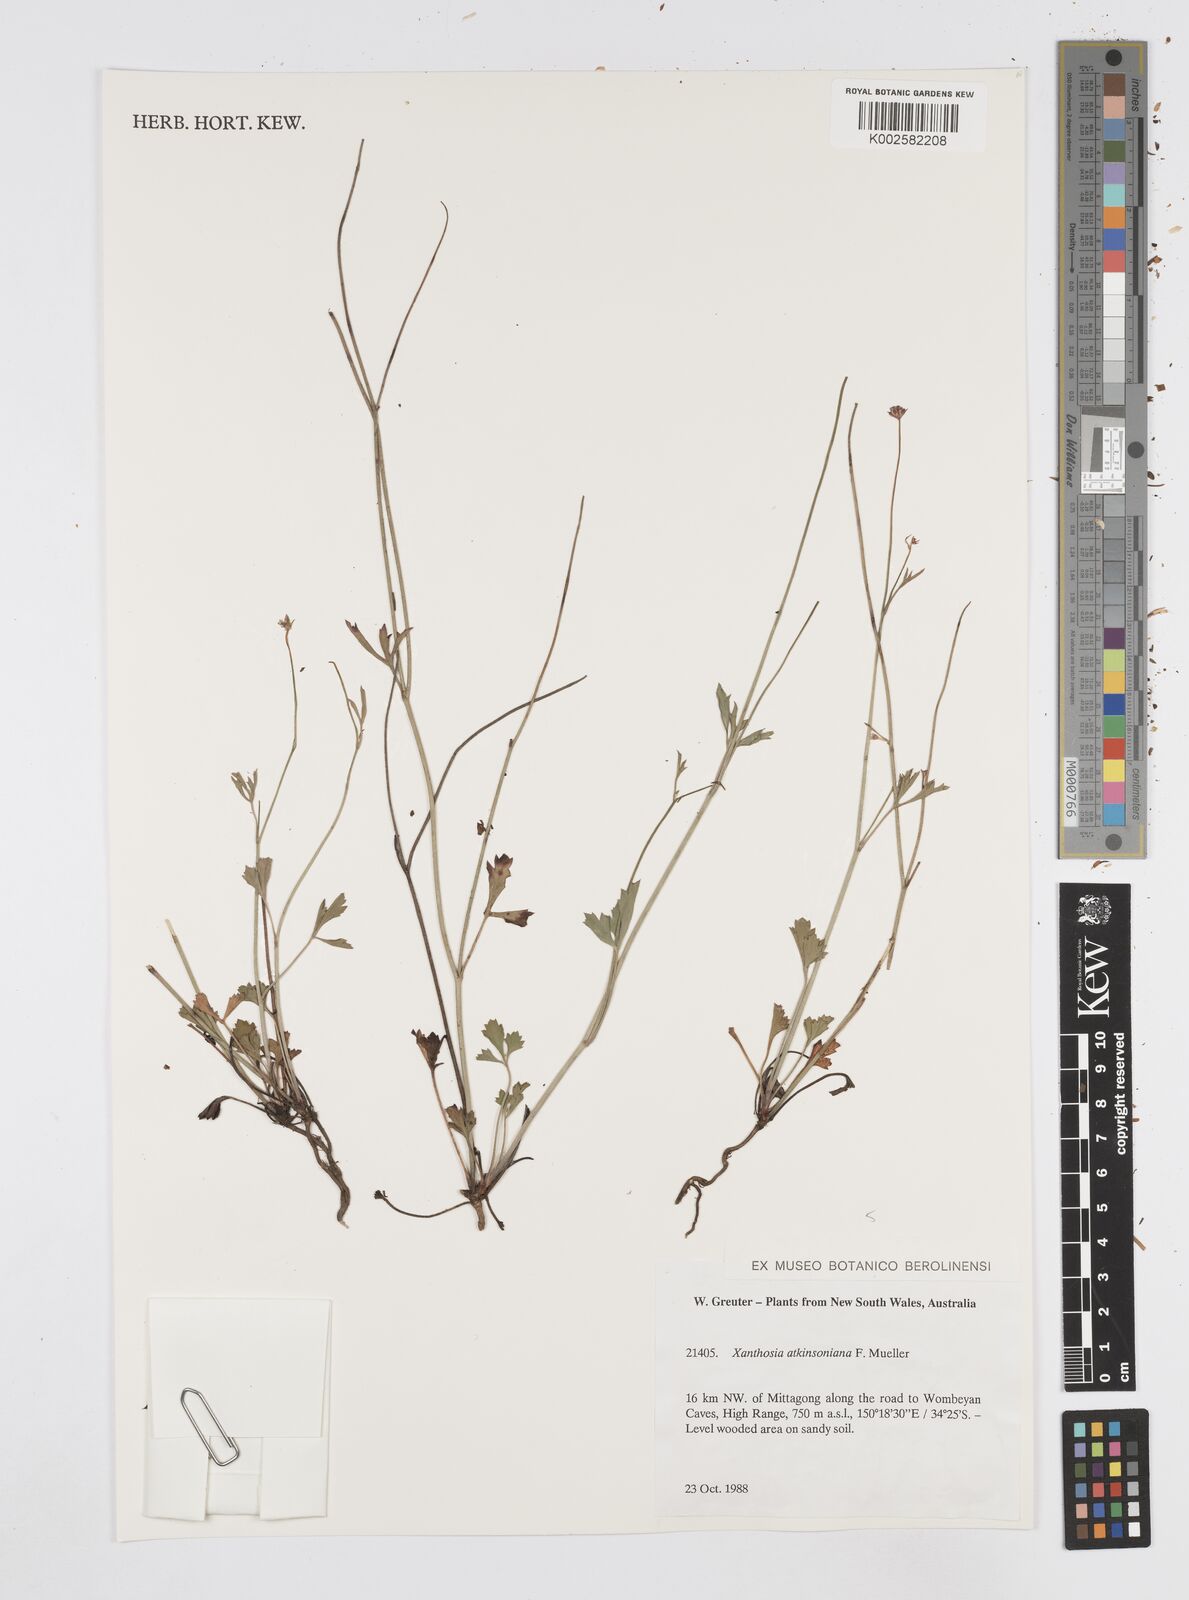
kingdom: Plantae
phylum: Tracheophyta
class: Magnoliopsida
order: Apiales
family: Apiaceae
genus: Xanthosia
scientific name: Xanthosia atkinsoniana
